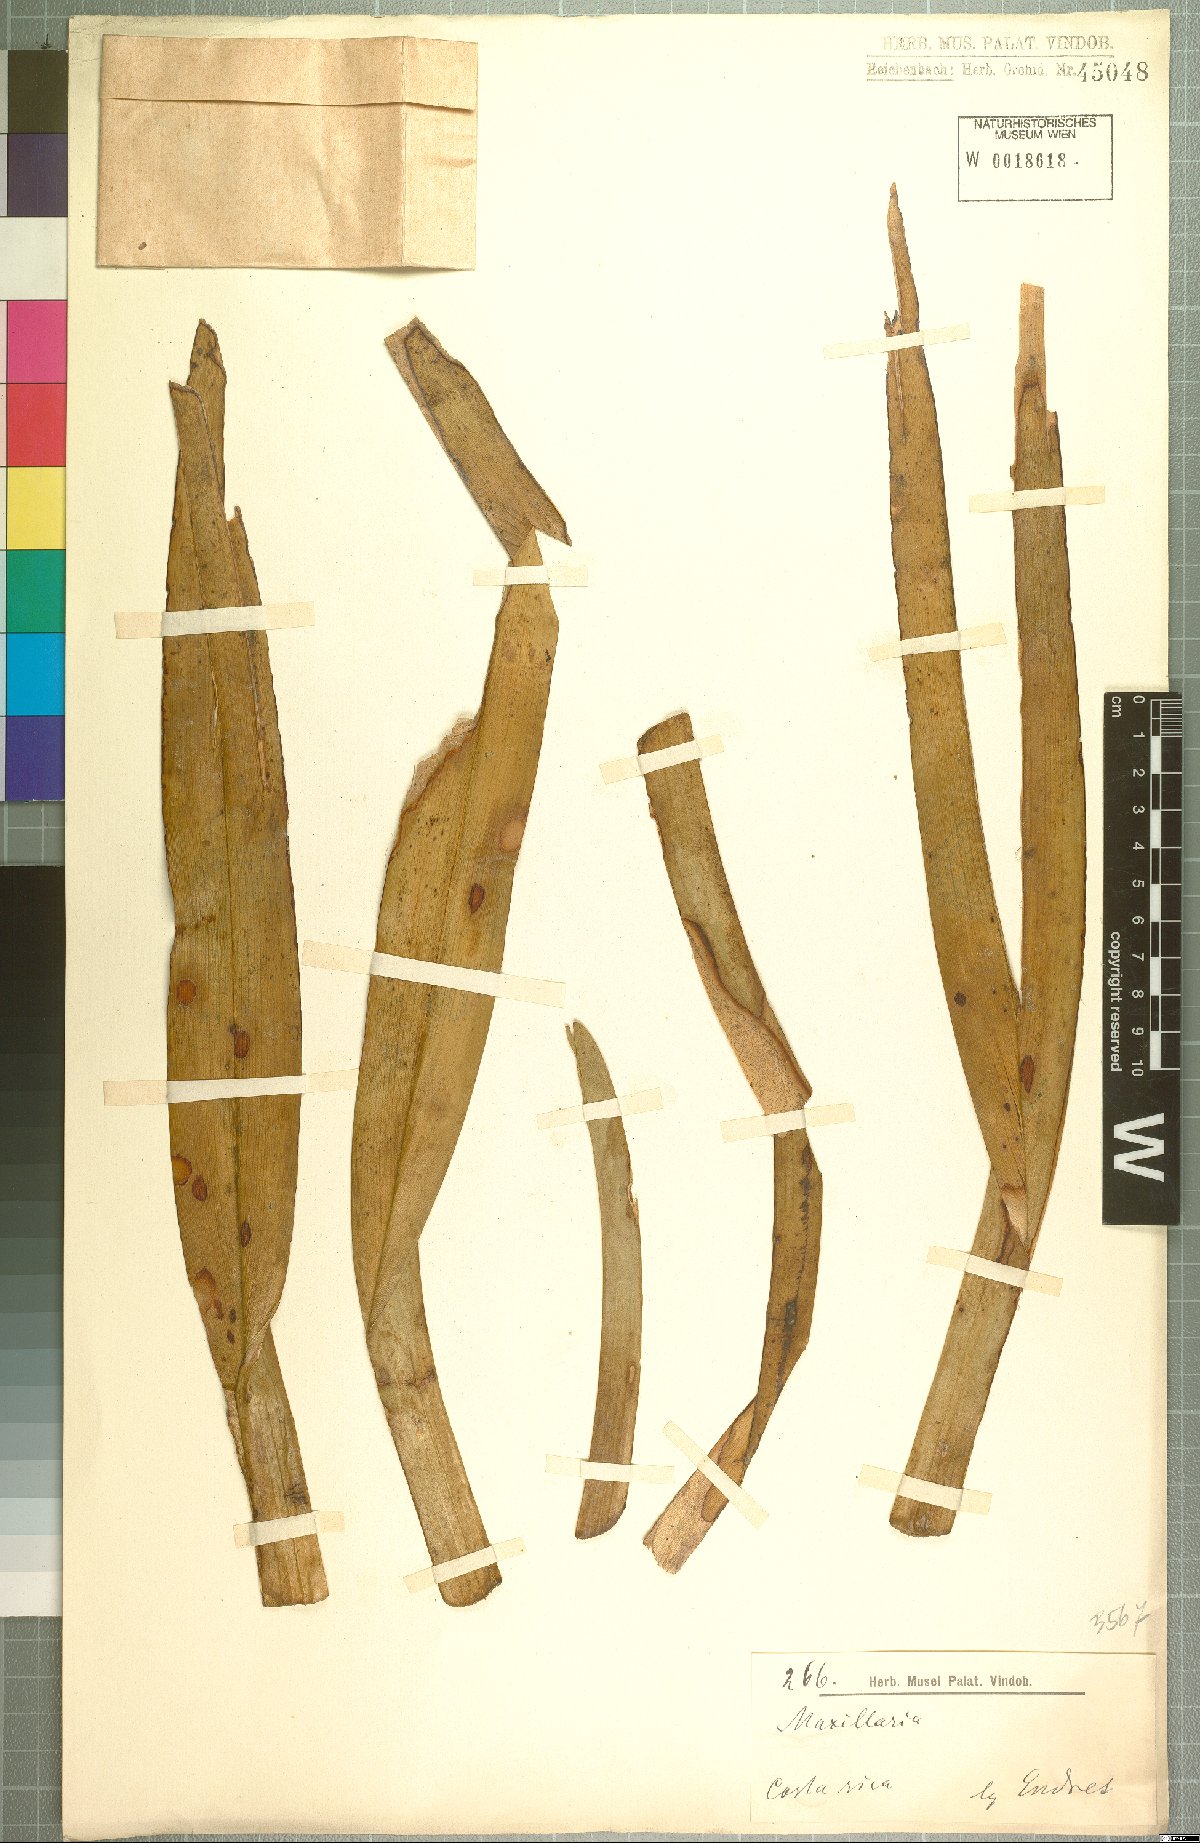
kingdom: Plantae
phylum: Tracheophyta
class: Liliopsida
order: Asparagales
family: Orchidaceae
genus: Maxillaria
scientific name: Maxillaria nasuta
